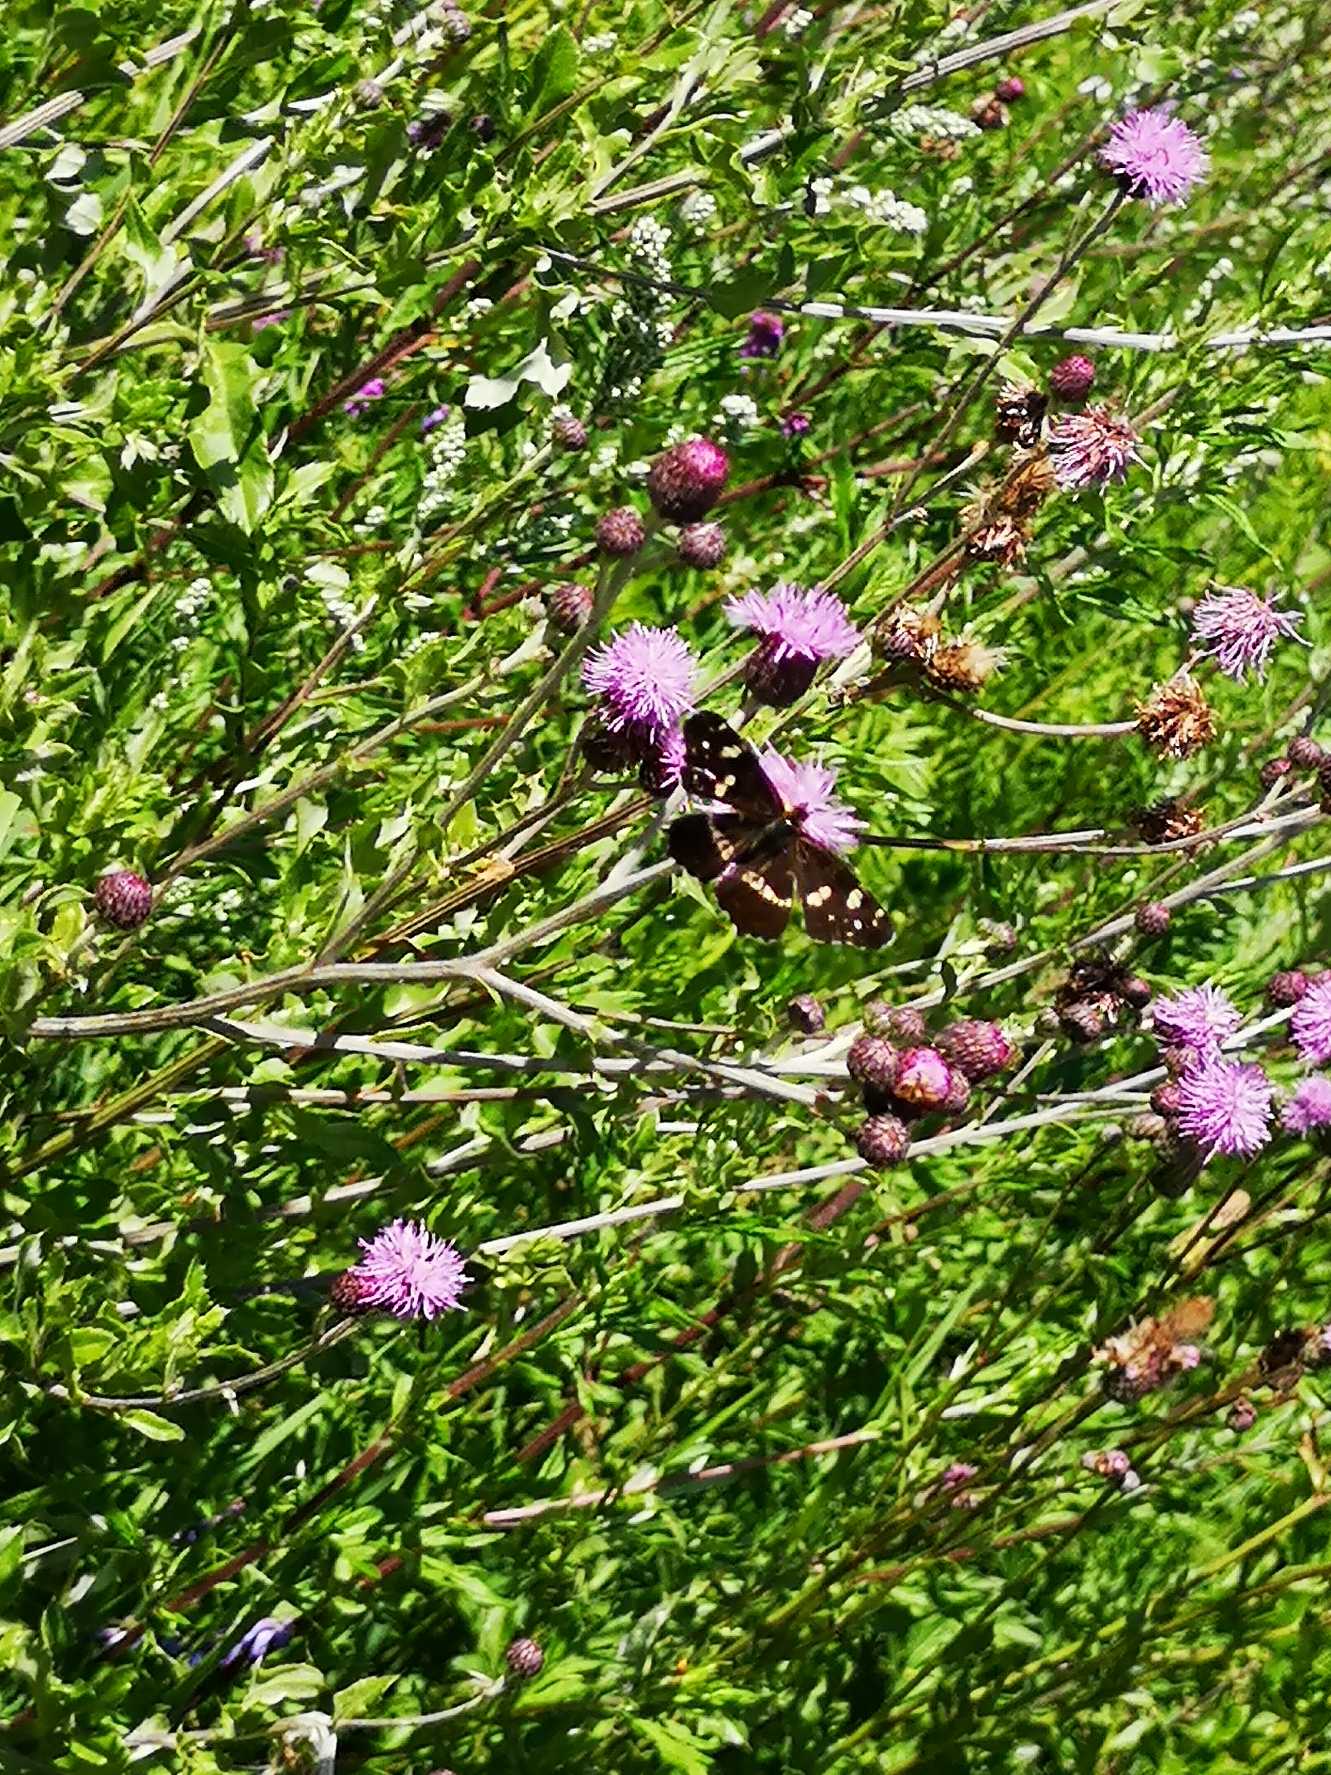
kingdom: Animalia
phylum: Arthropoda
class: Insecta
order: Lepidoptera
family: Nymphalidae
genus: Araschnia
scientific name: Araschnia levana
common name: Nældesommerfugl
